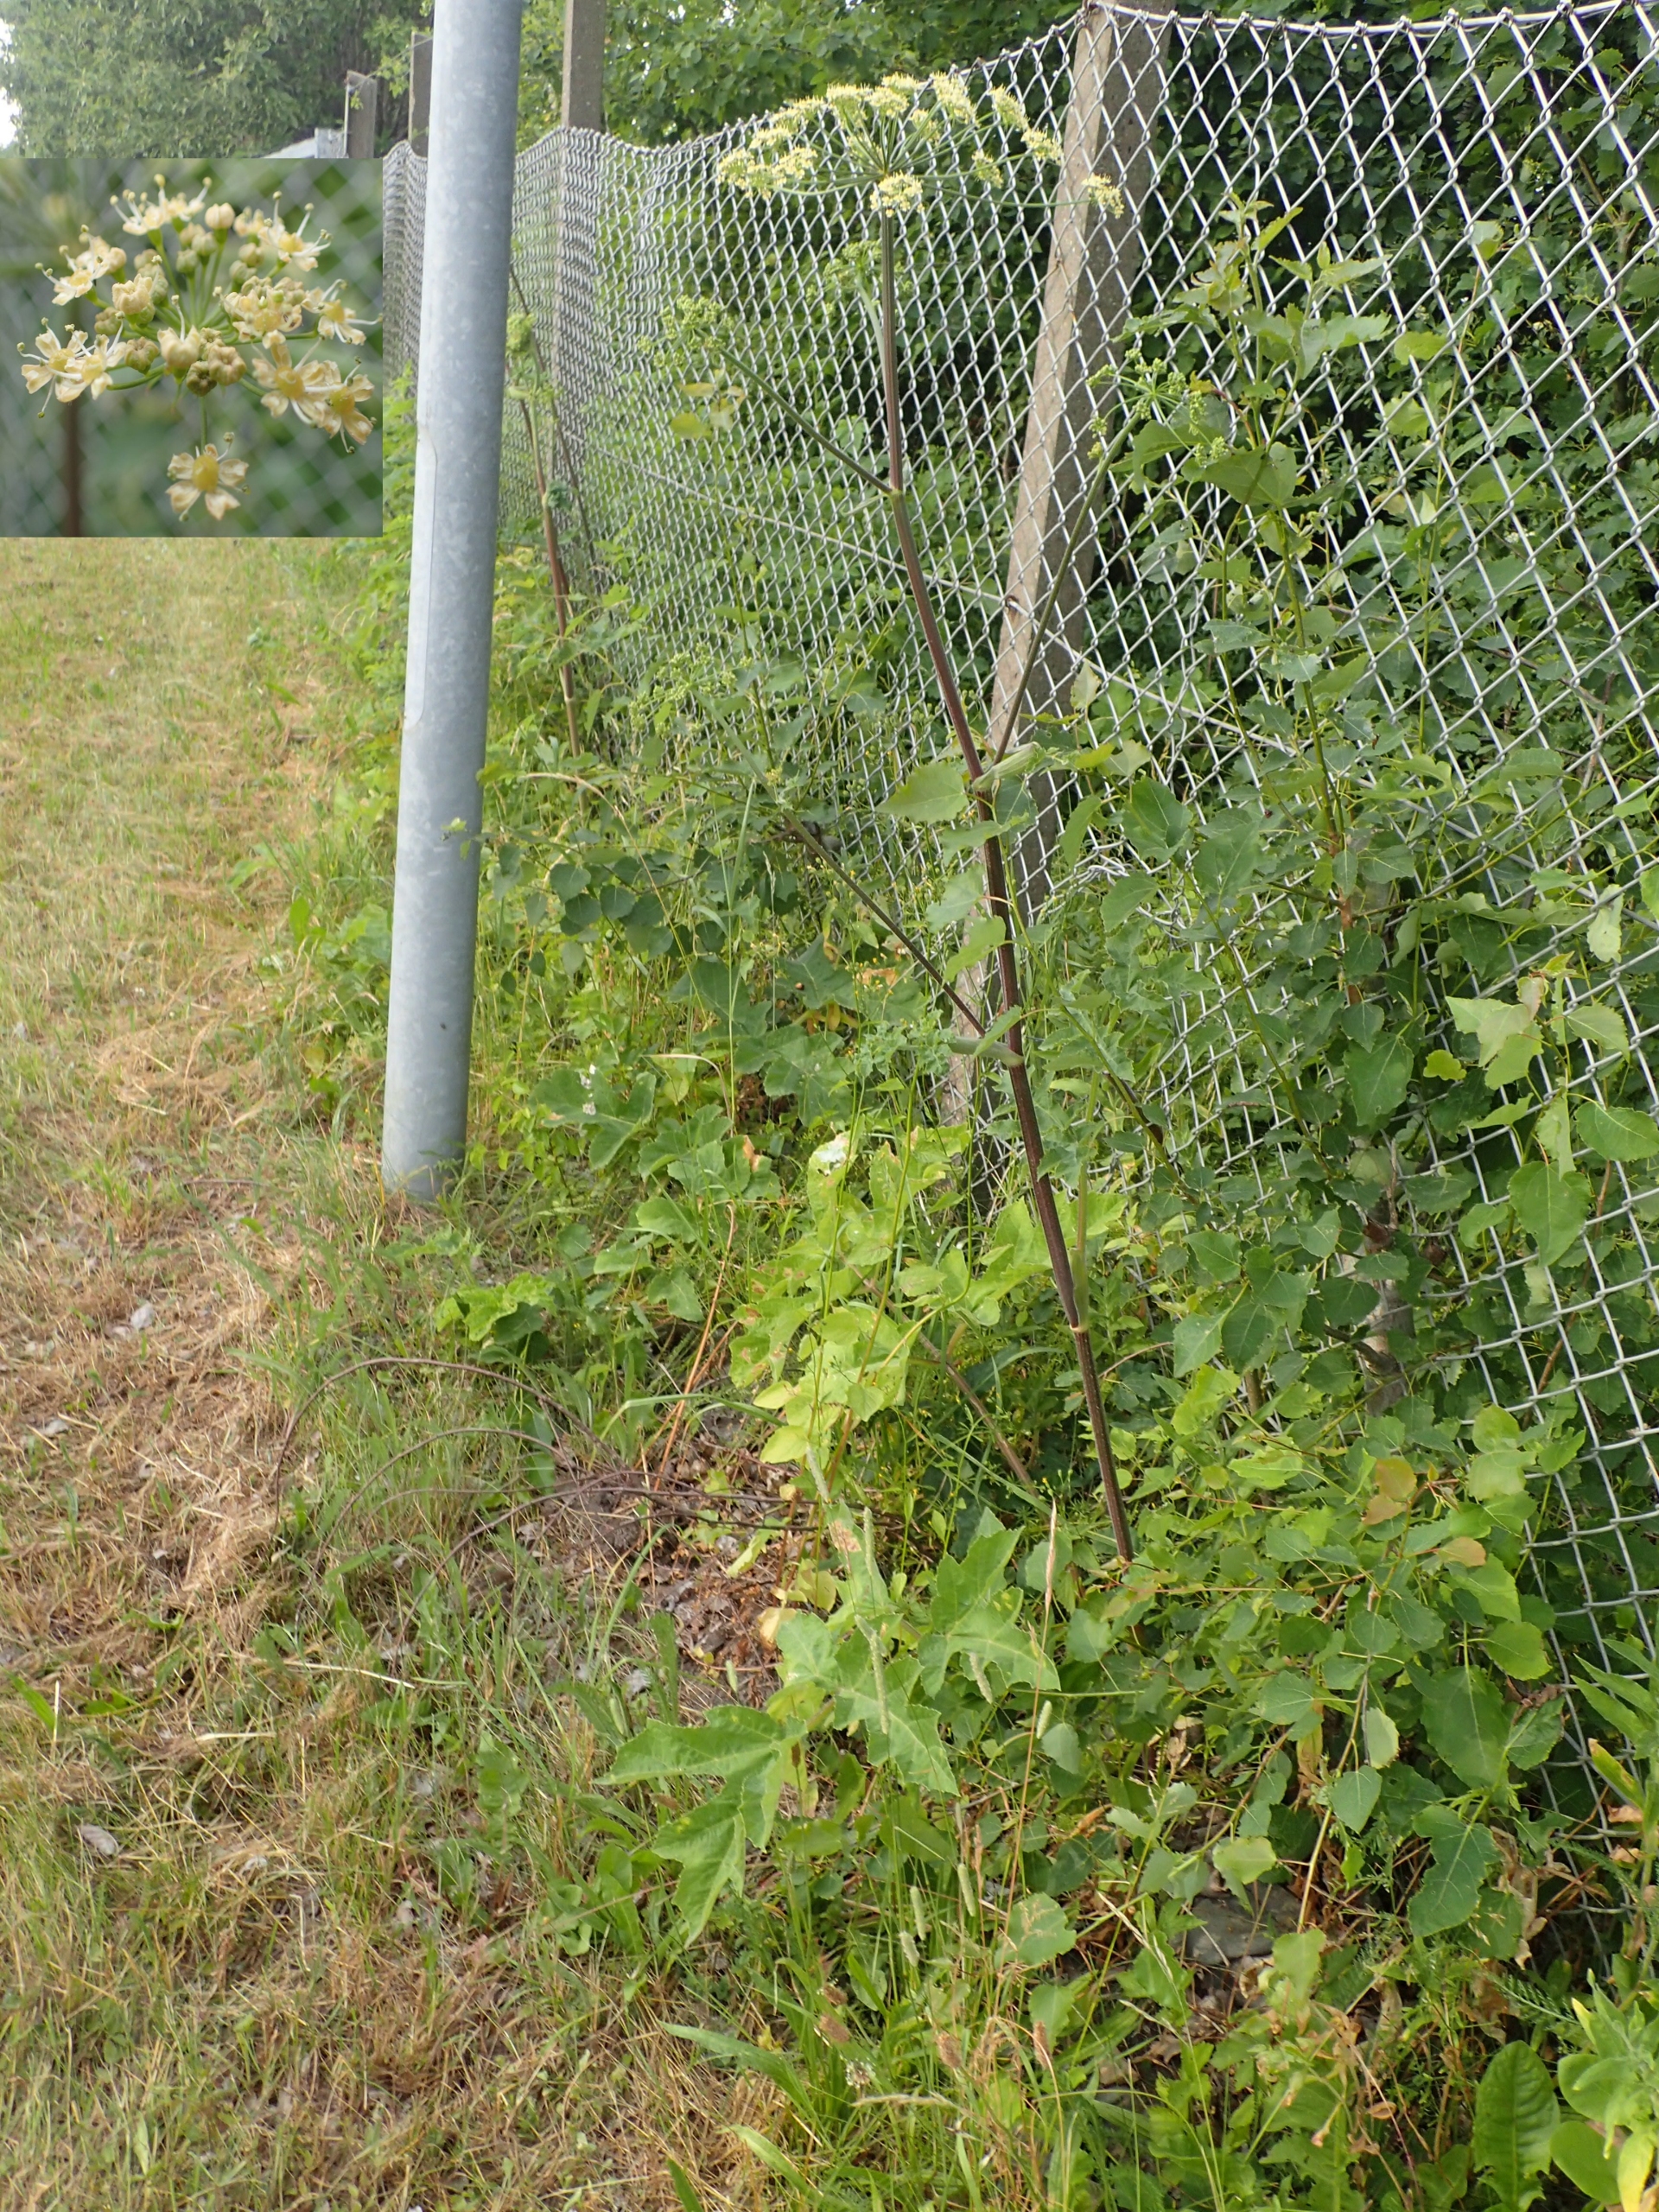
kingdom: Plantae
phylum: Tracheophyta
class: Magnoliopsida
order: Apiales
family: Apiaceae
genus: Heracleum
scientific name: Heracleum sphondylium
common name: Grønblomstret bjørneklo
